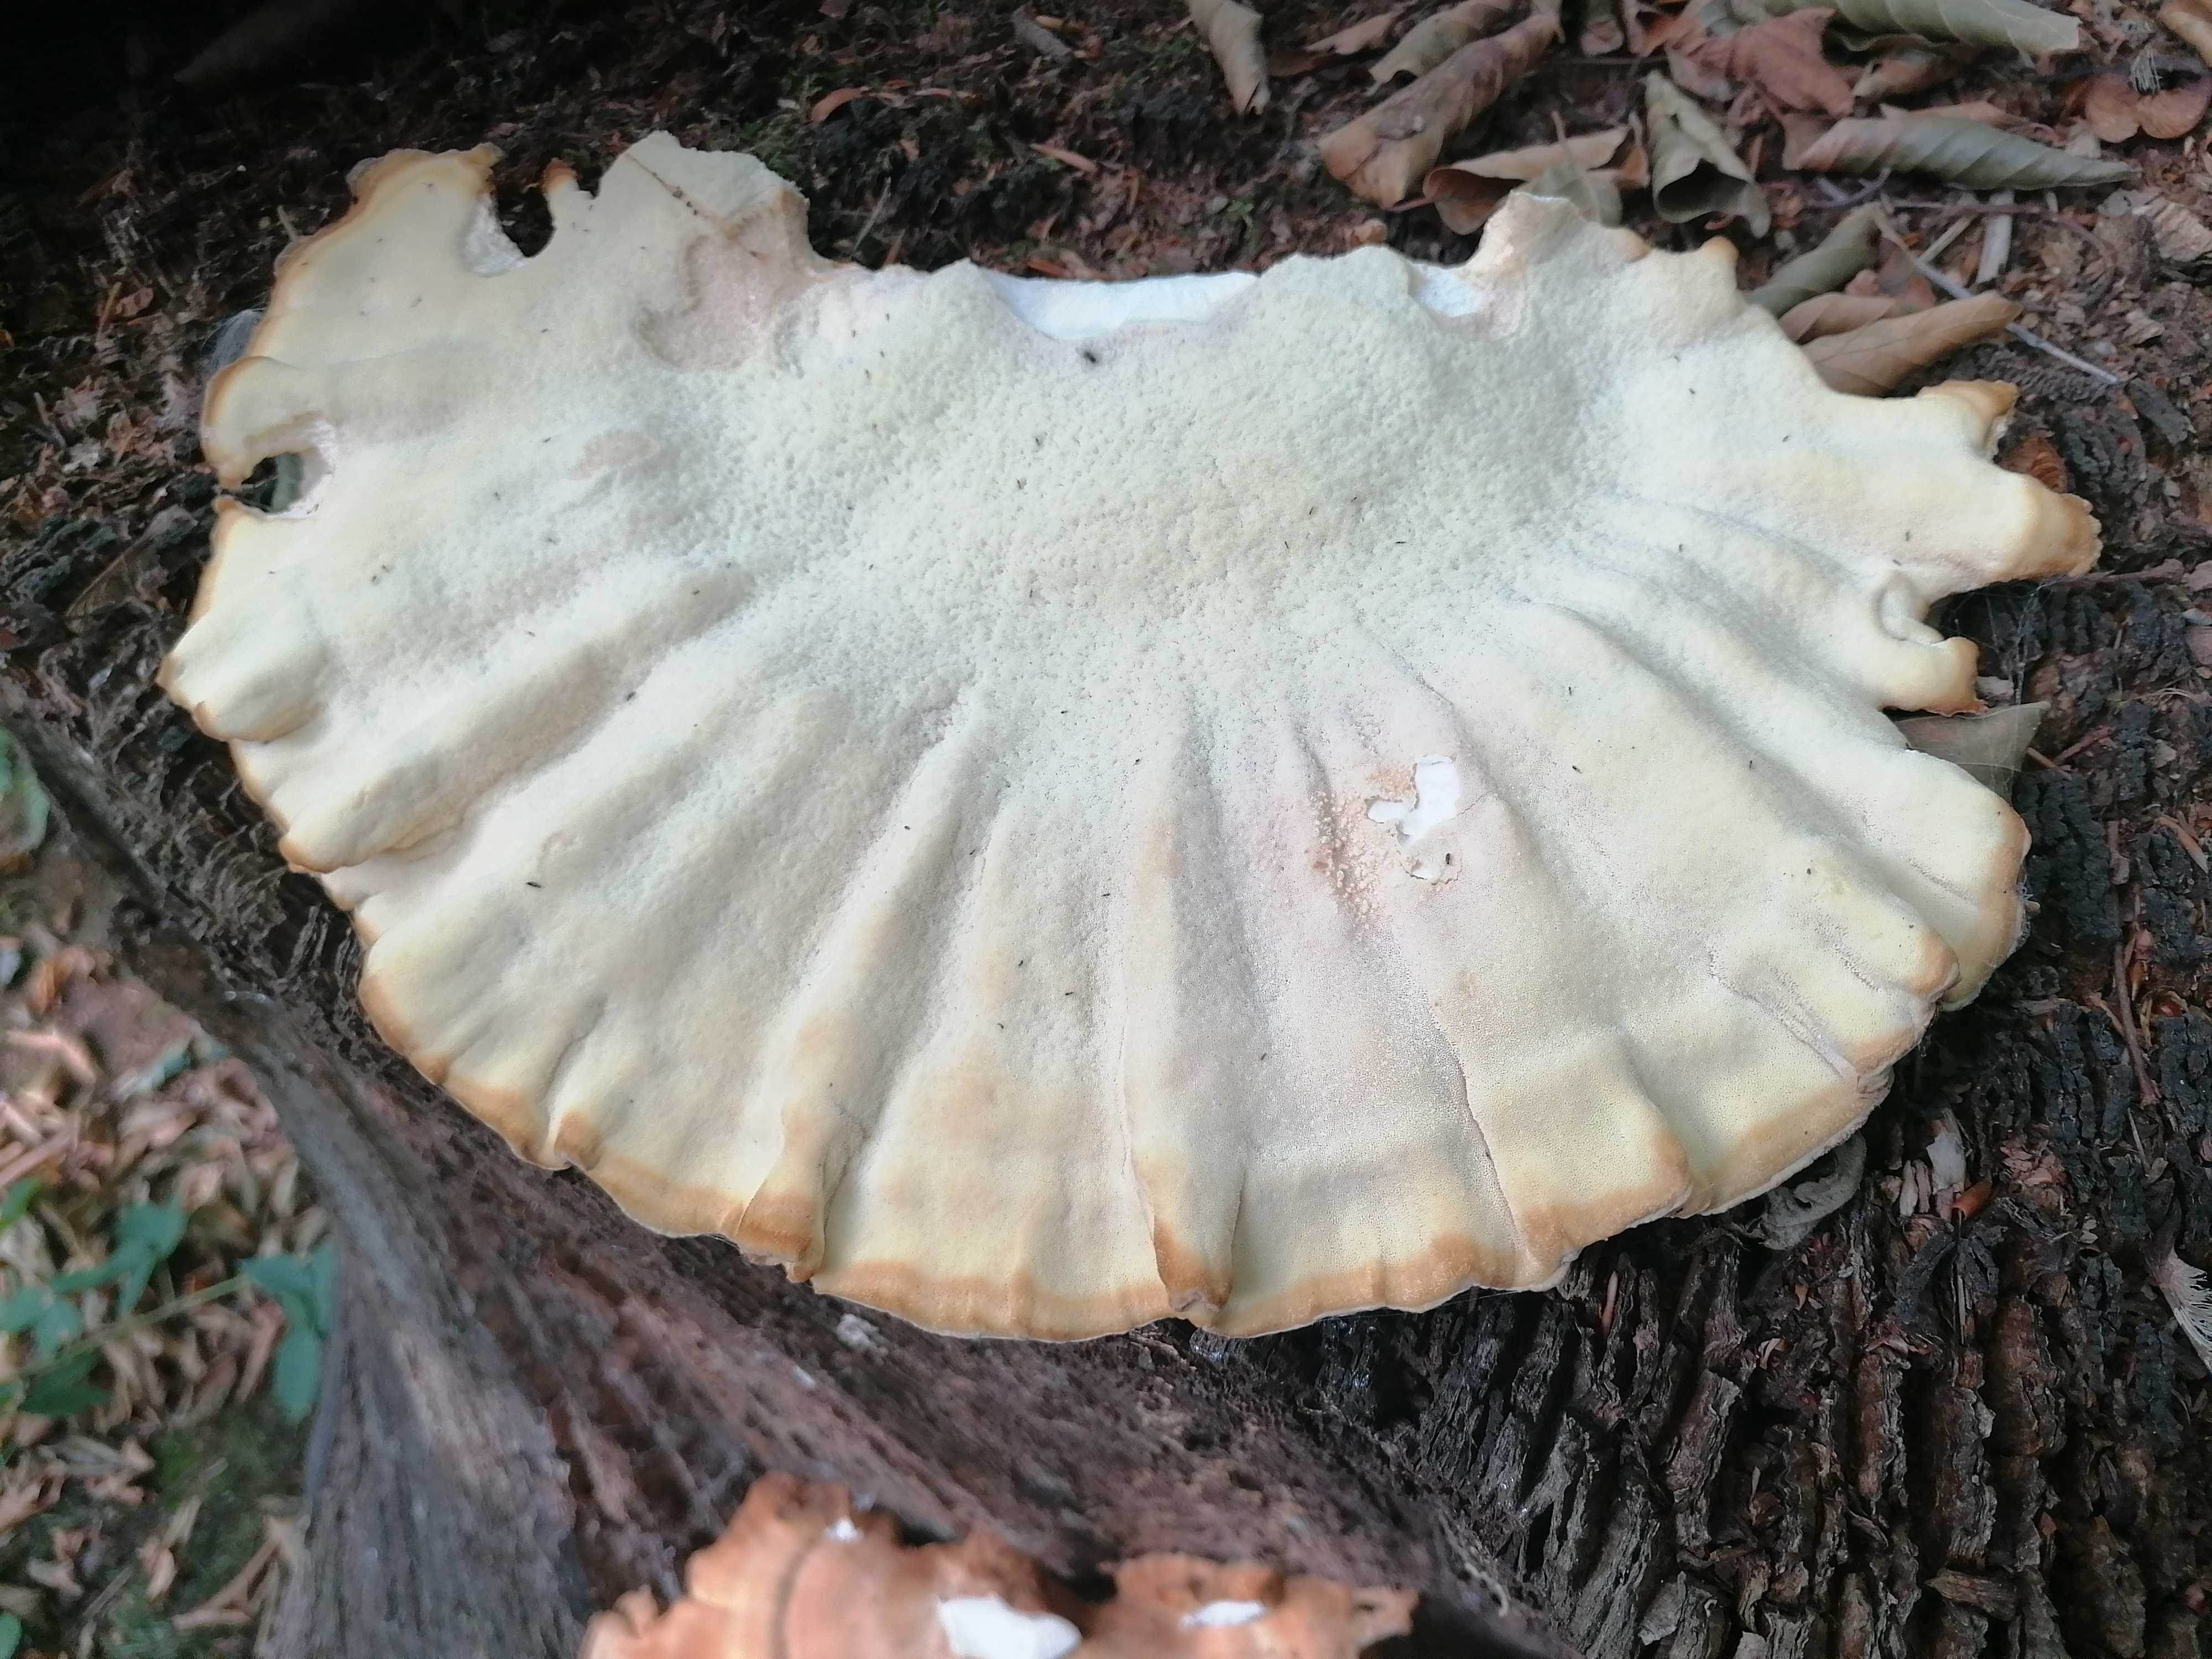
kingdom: Fungi
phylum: Basidiomycota
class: Agaricomycetes
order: Polyporales
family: Laetiporaceae
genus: Laetiporus
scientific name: Laetiporus sulphureus
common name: svovlporesvamp
